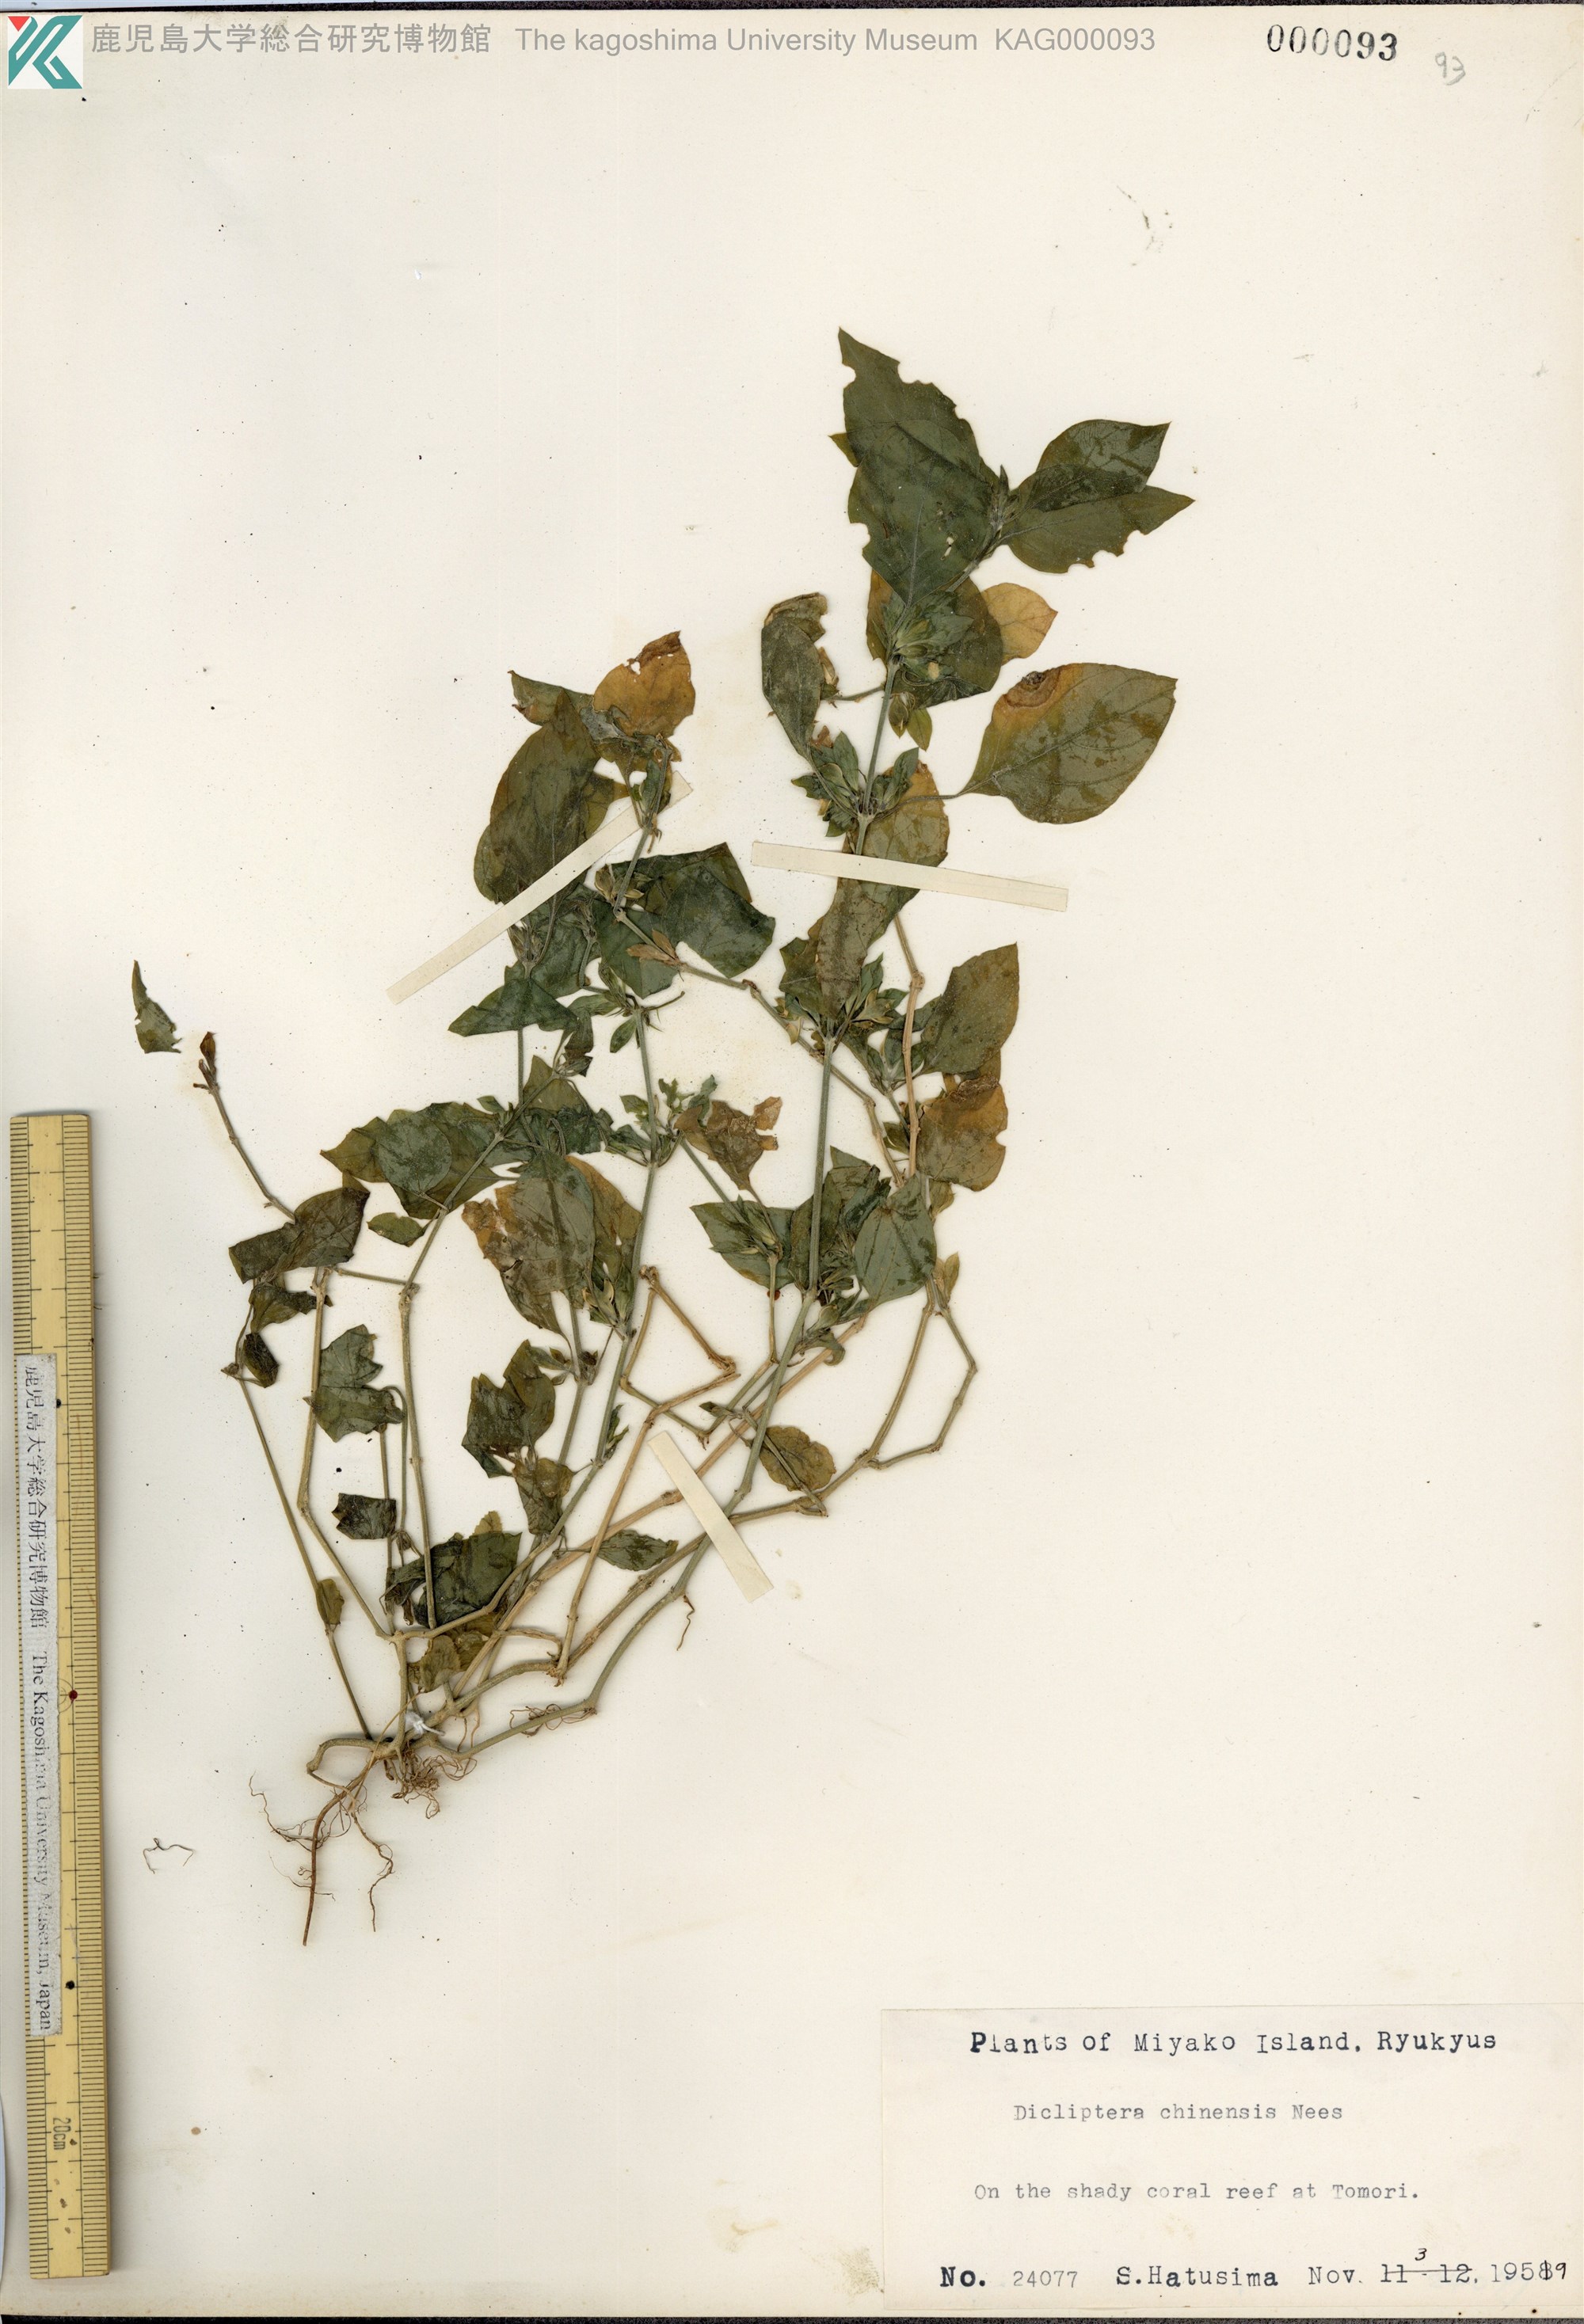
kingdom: Plantae
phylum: Tracheophyta
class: Magnoliopsida
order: Lamiales
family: Acanthaceae
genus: Dicliptera
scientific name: Dicliptera chinensis
